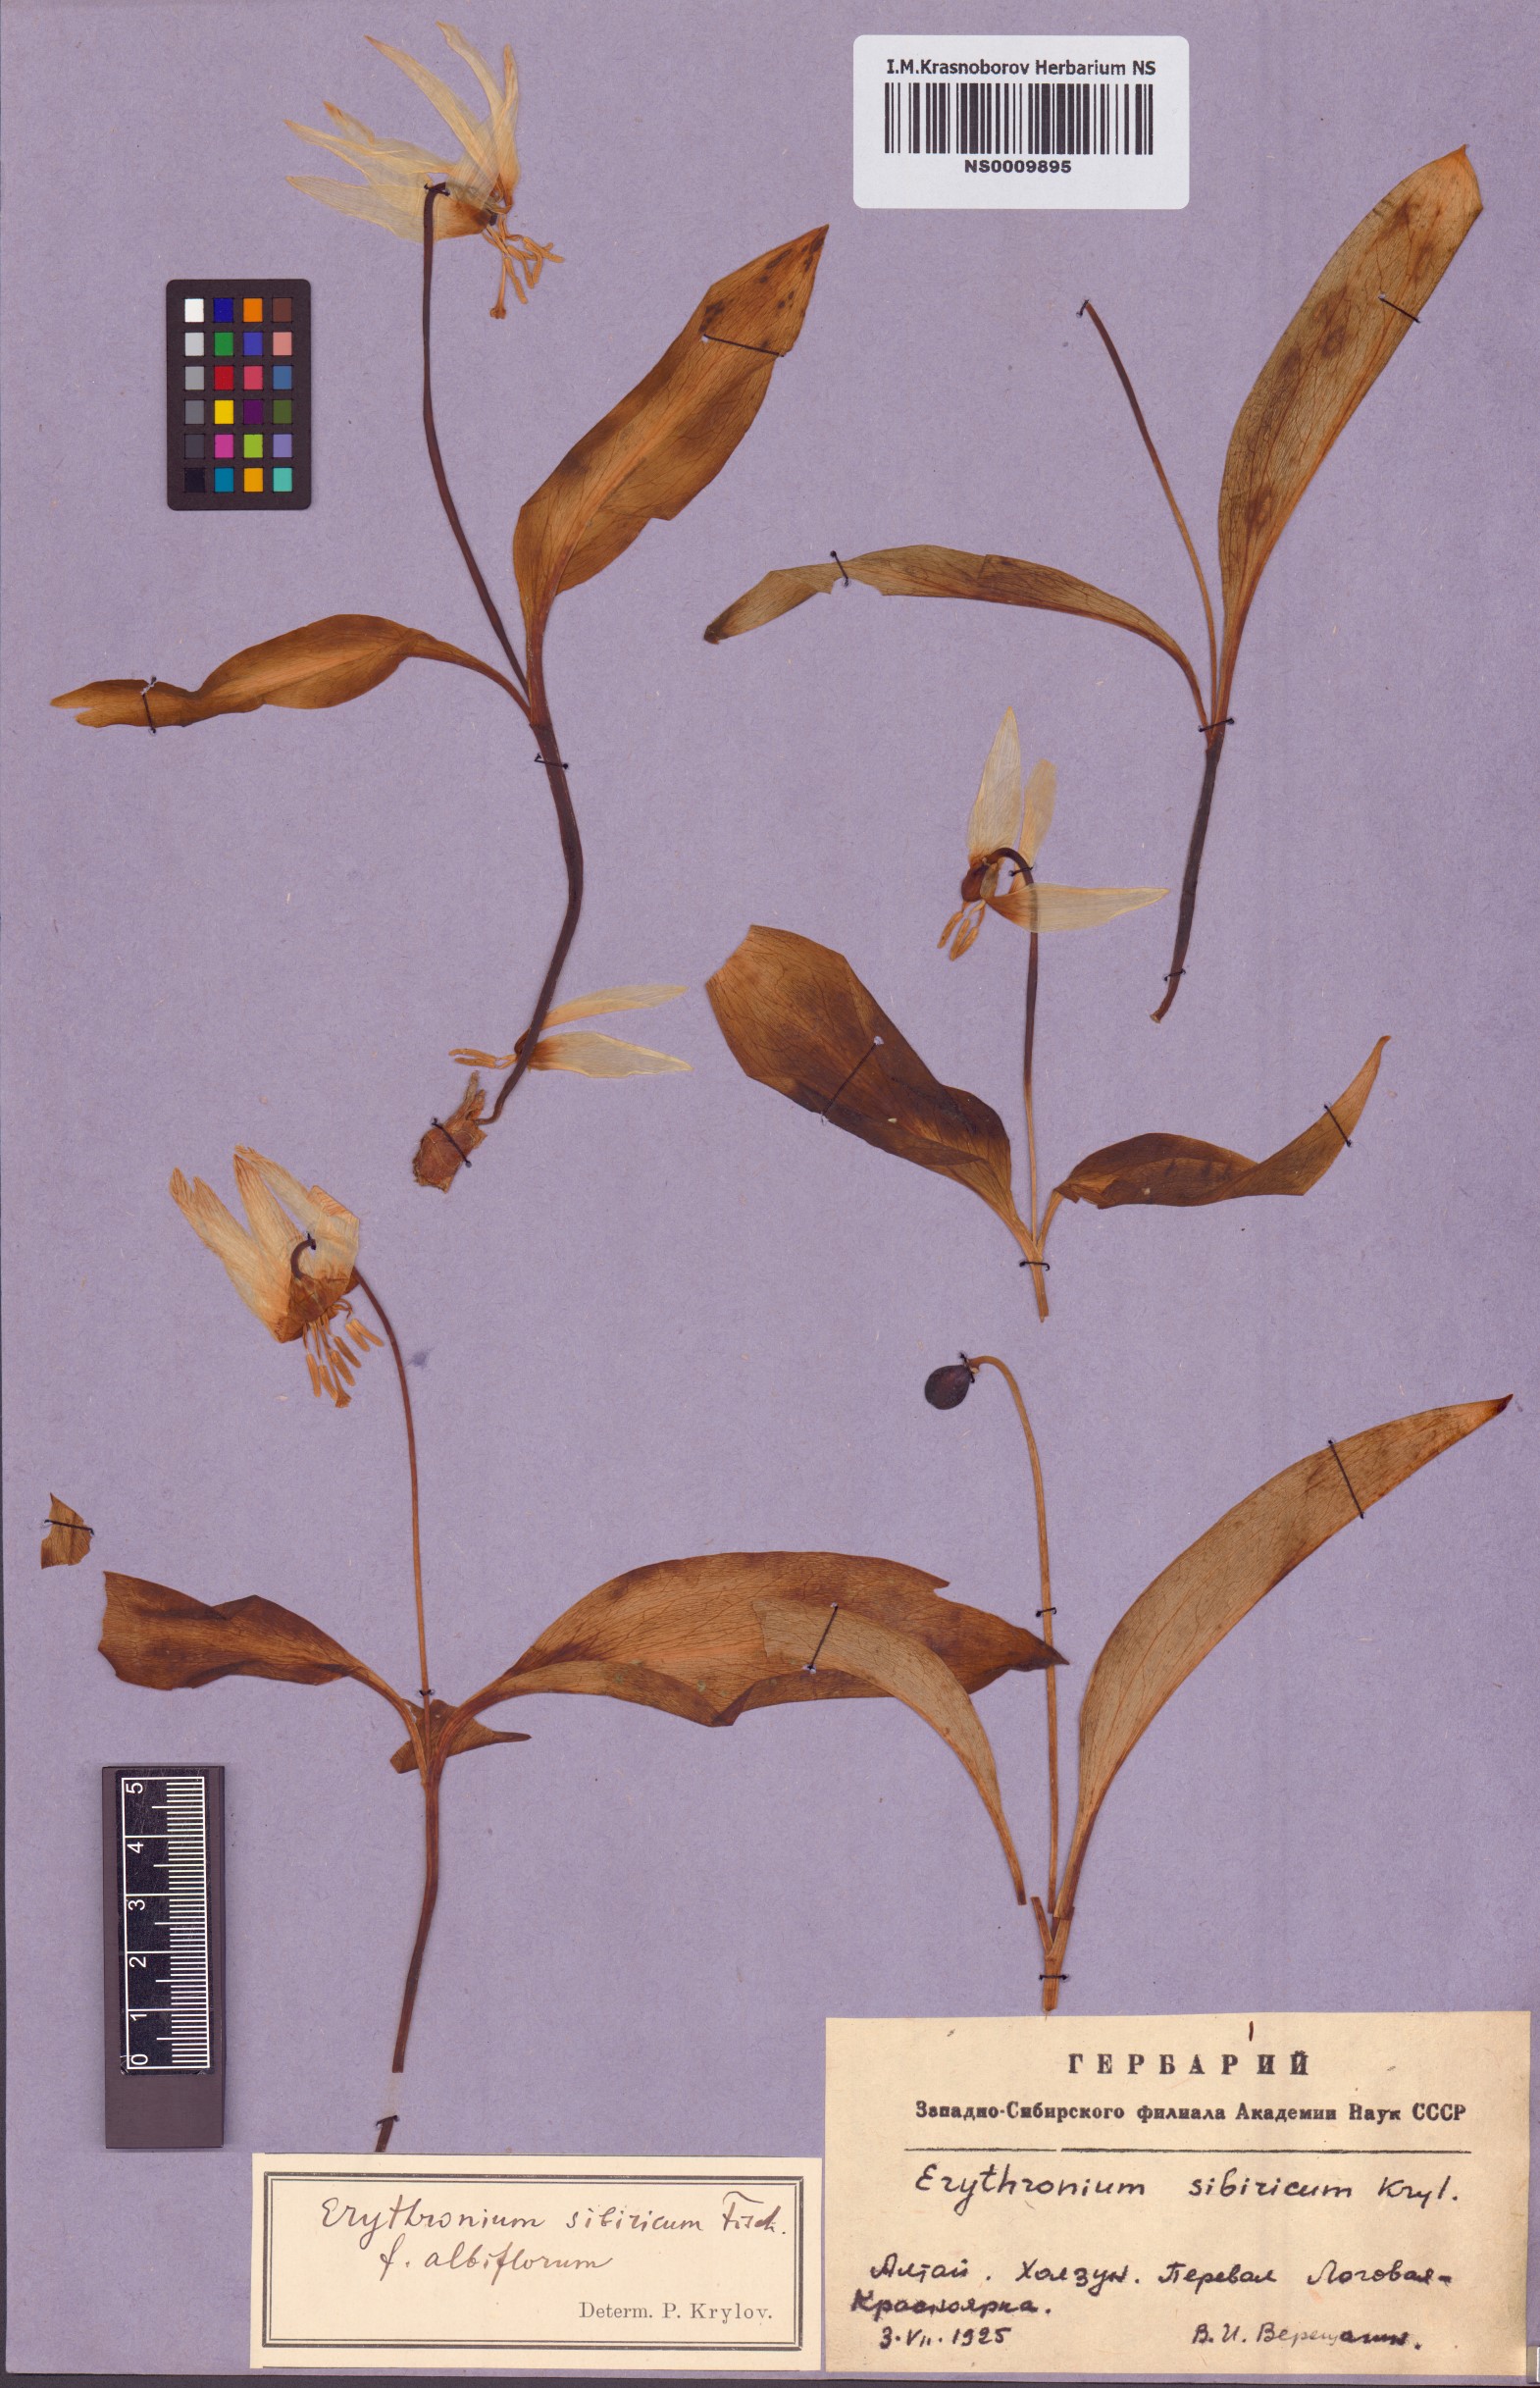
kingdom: Plantae
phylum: Tracheophyta
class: Liliopsida
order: Liliales
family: Liliaceae
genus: Erythronium
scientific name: Erythronium sibiricum
